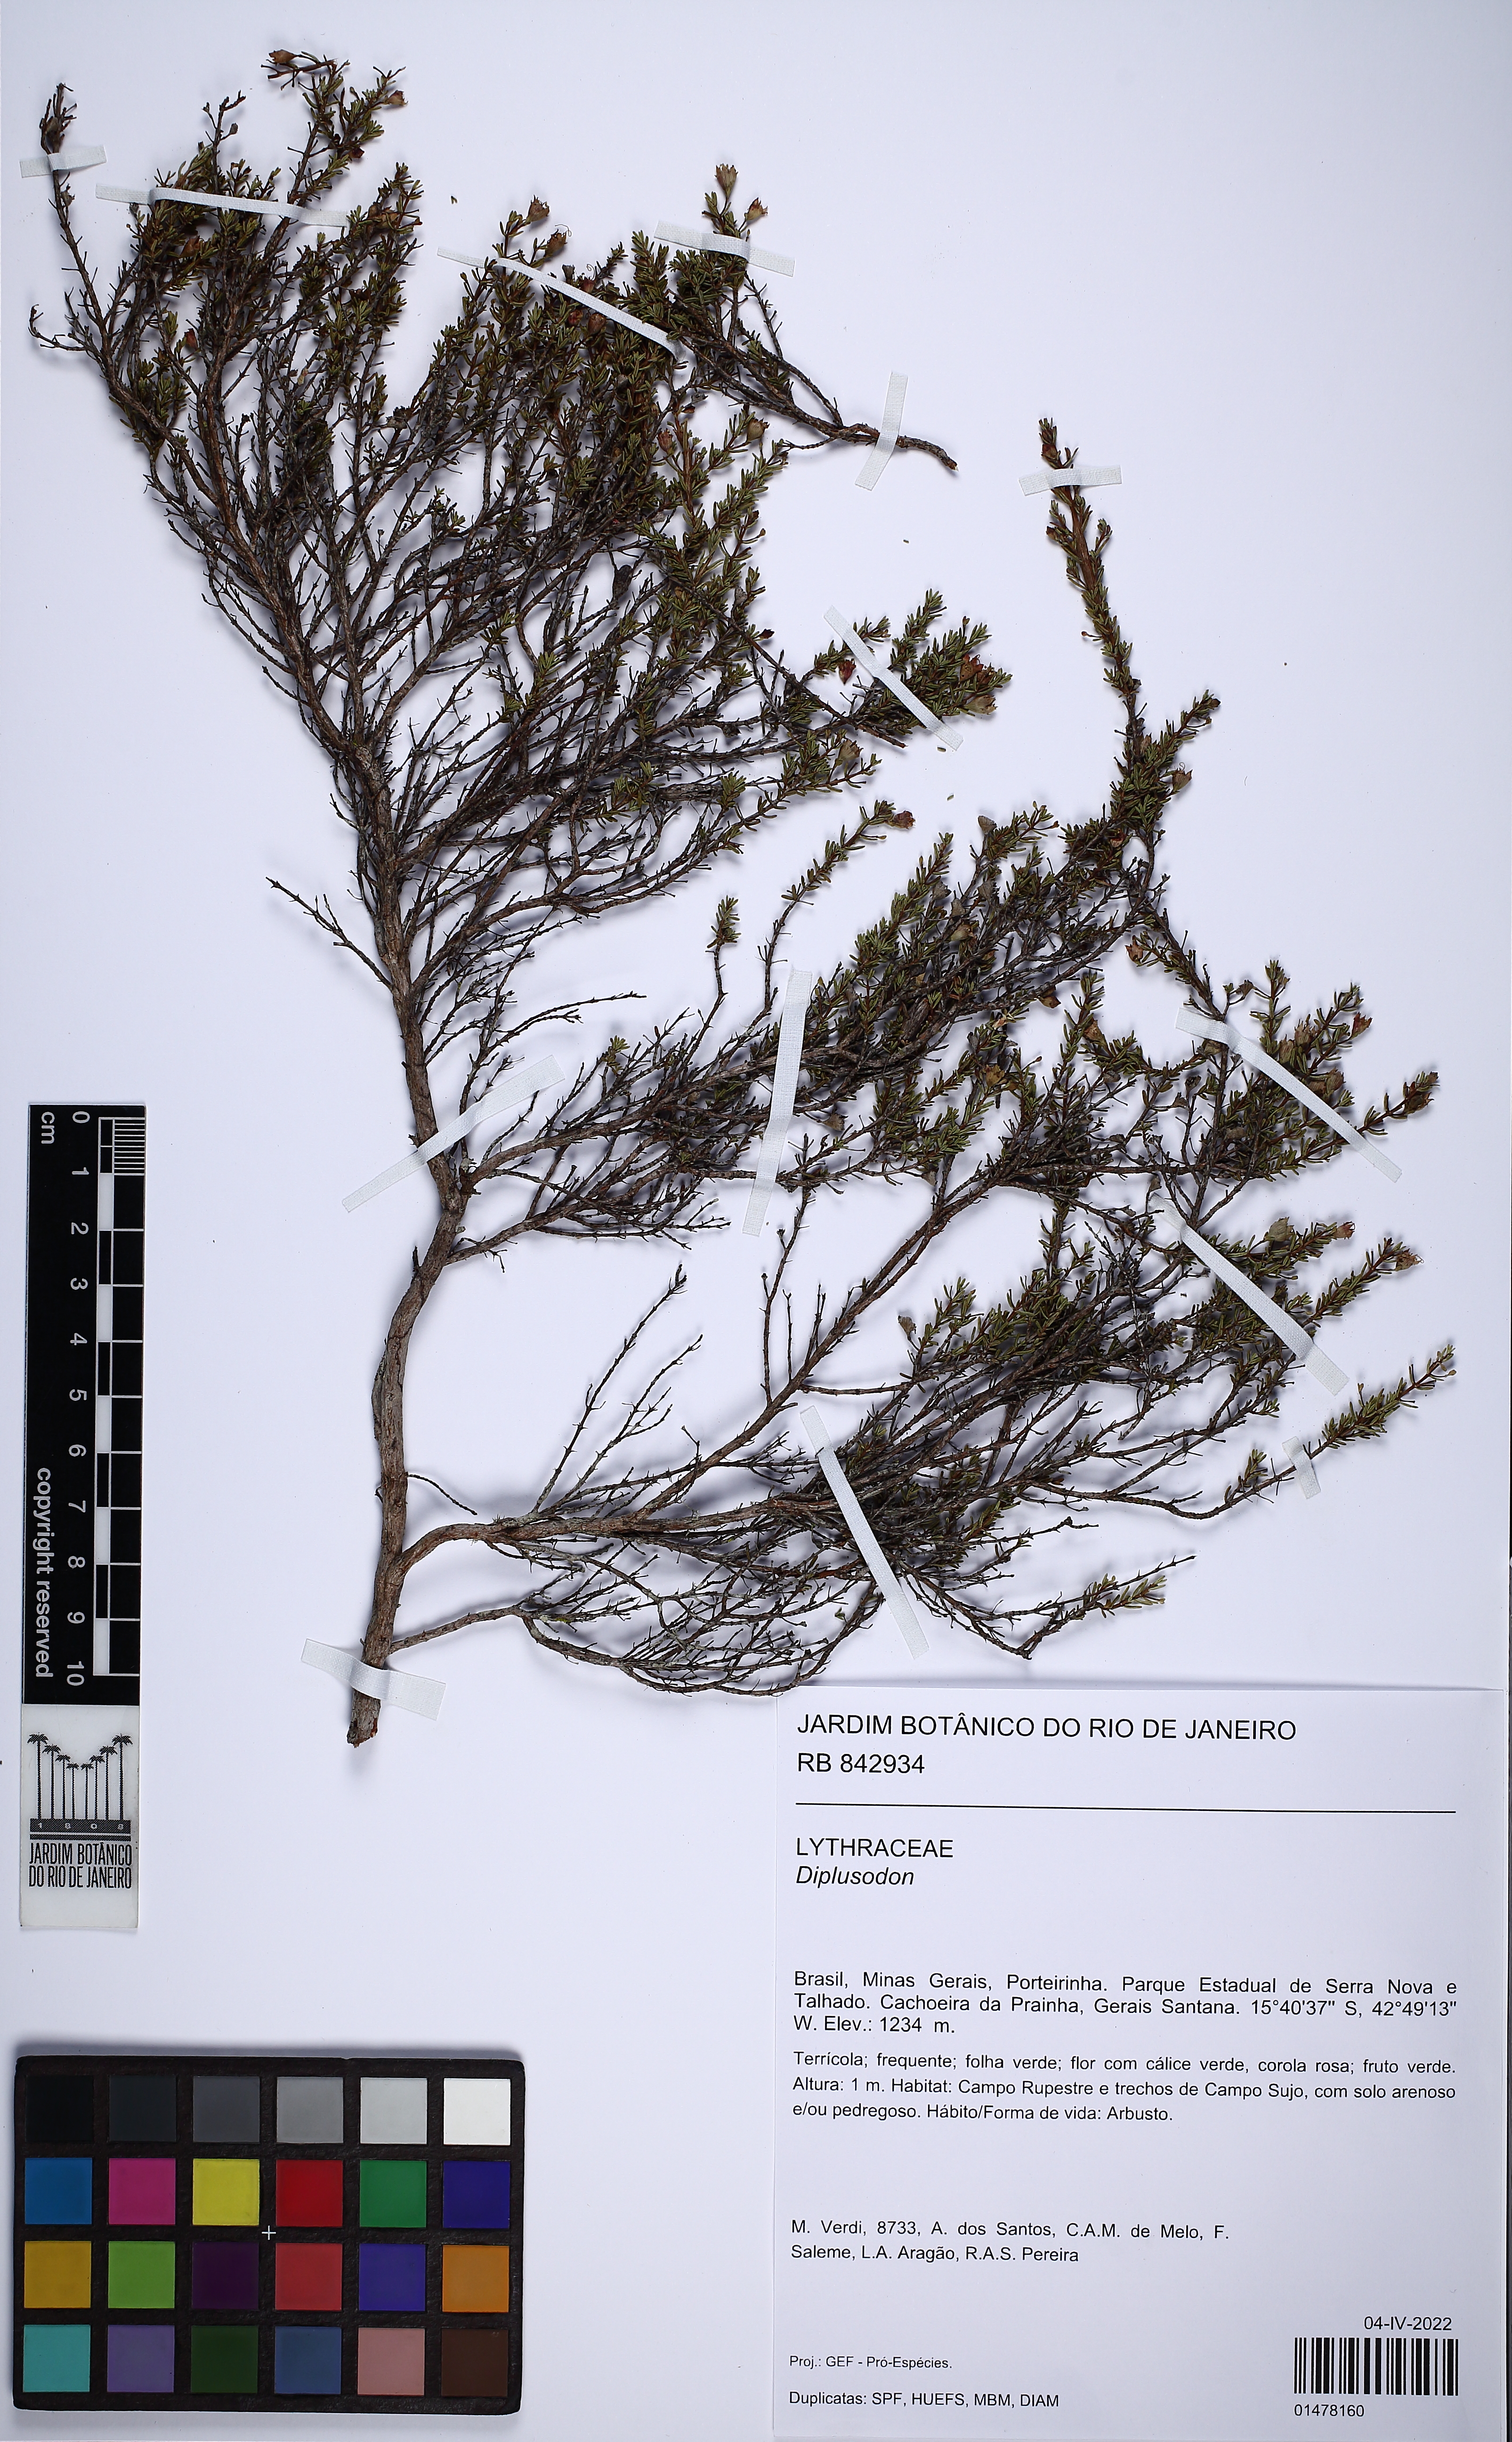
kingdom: Plantae
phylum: Tracheophyta
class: Magnoliopsida
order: Myrtales
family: Lythraceae
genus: Diplusodon
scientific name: Diplusodon
